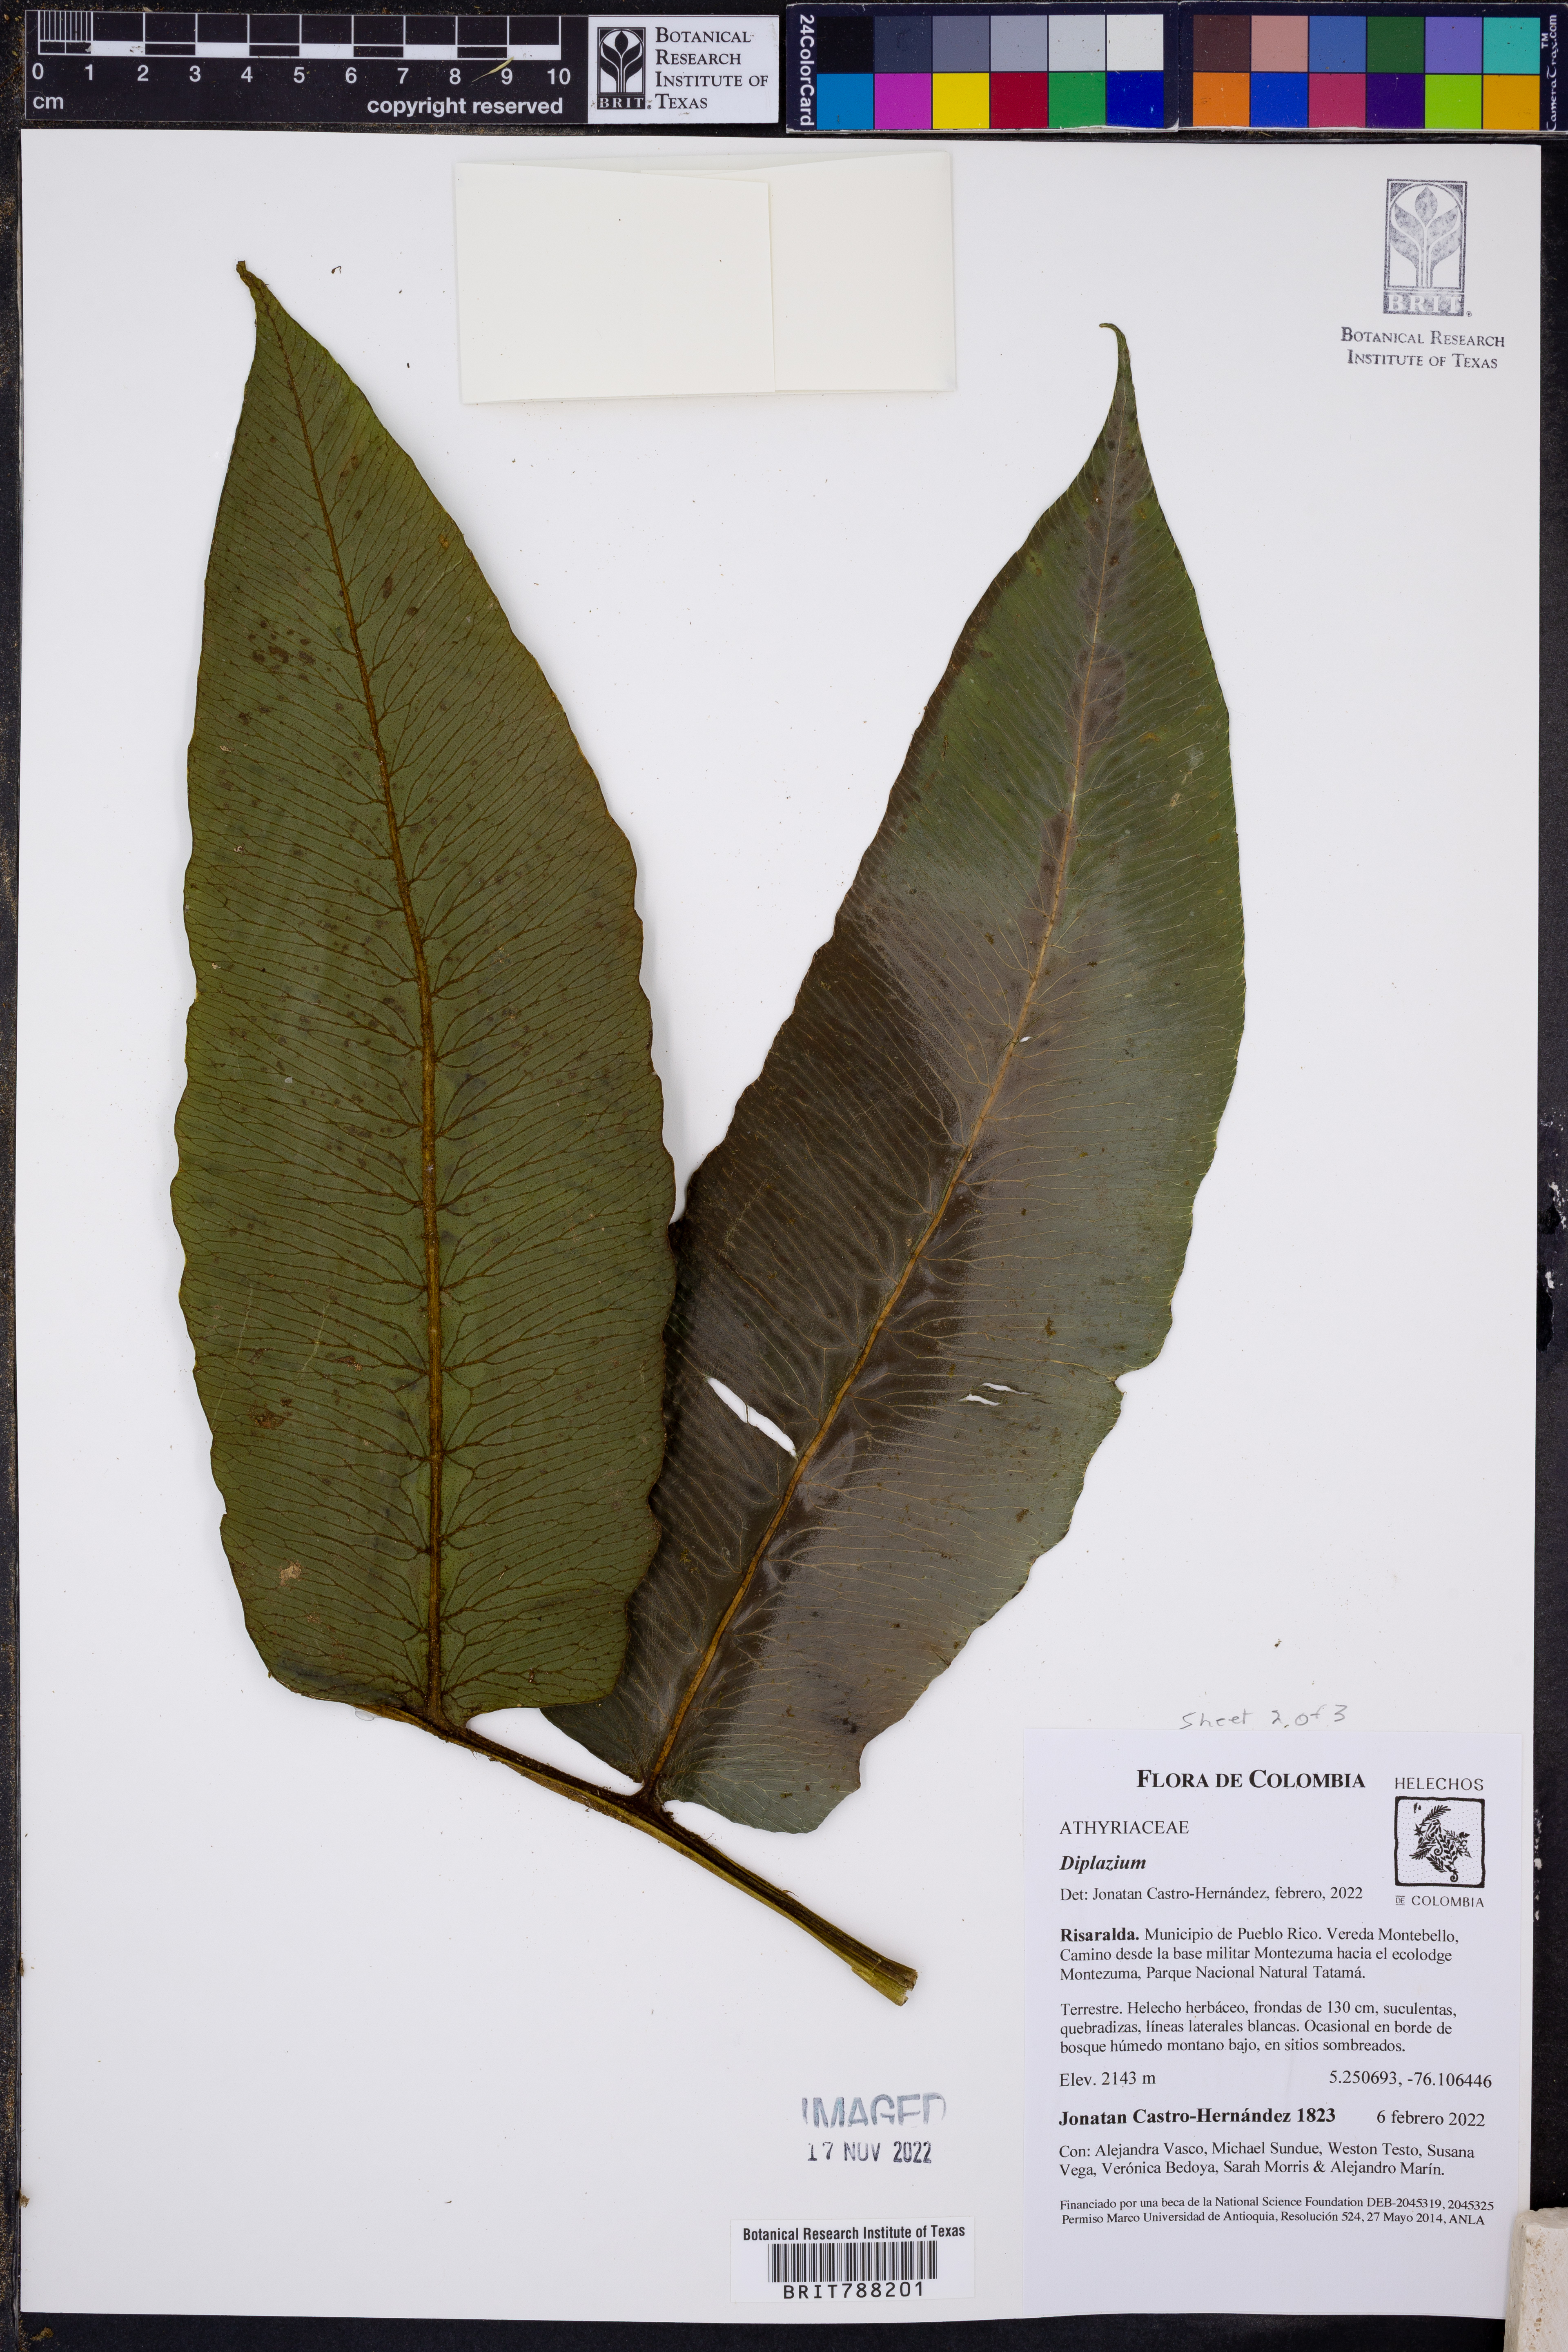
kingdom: Plantae
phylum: Tracheophyta
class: Polypodiopsida
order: Polypodiales
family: Athyriaceae
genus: Diplazium
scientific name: Diplazium macrodictyon
